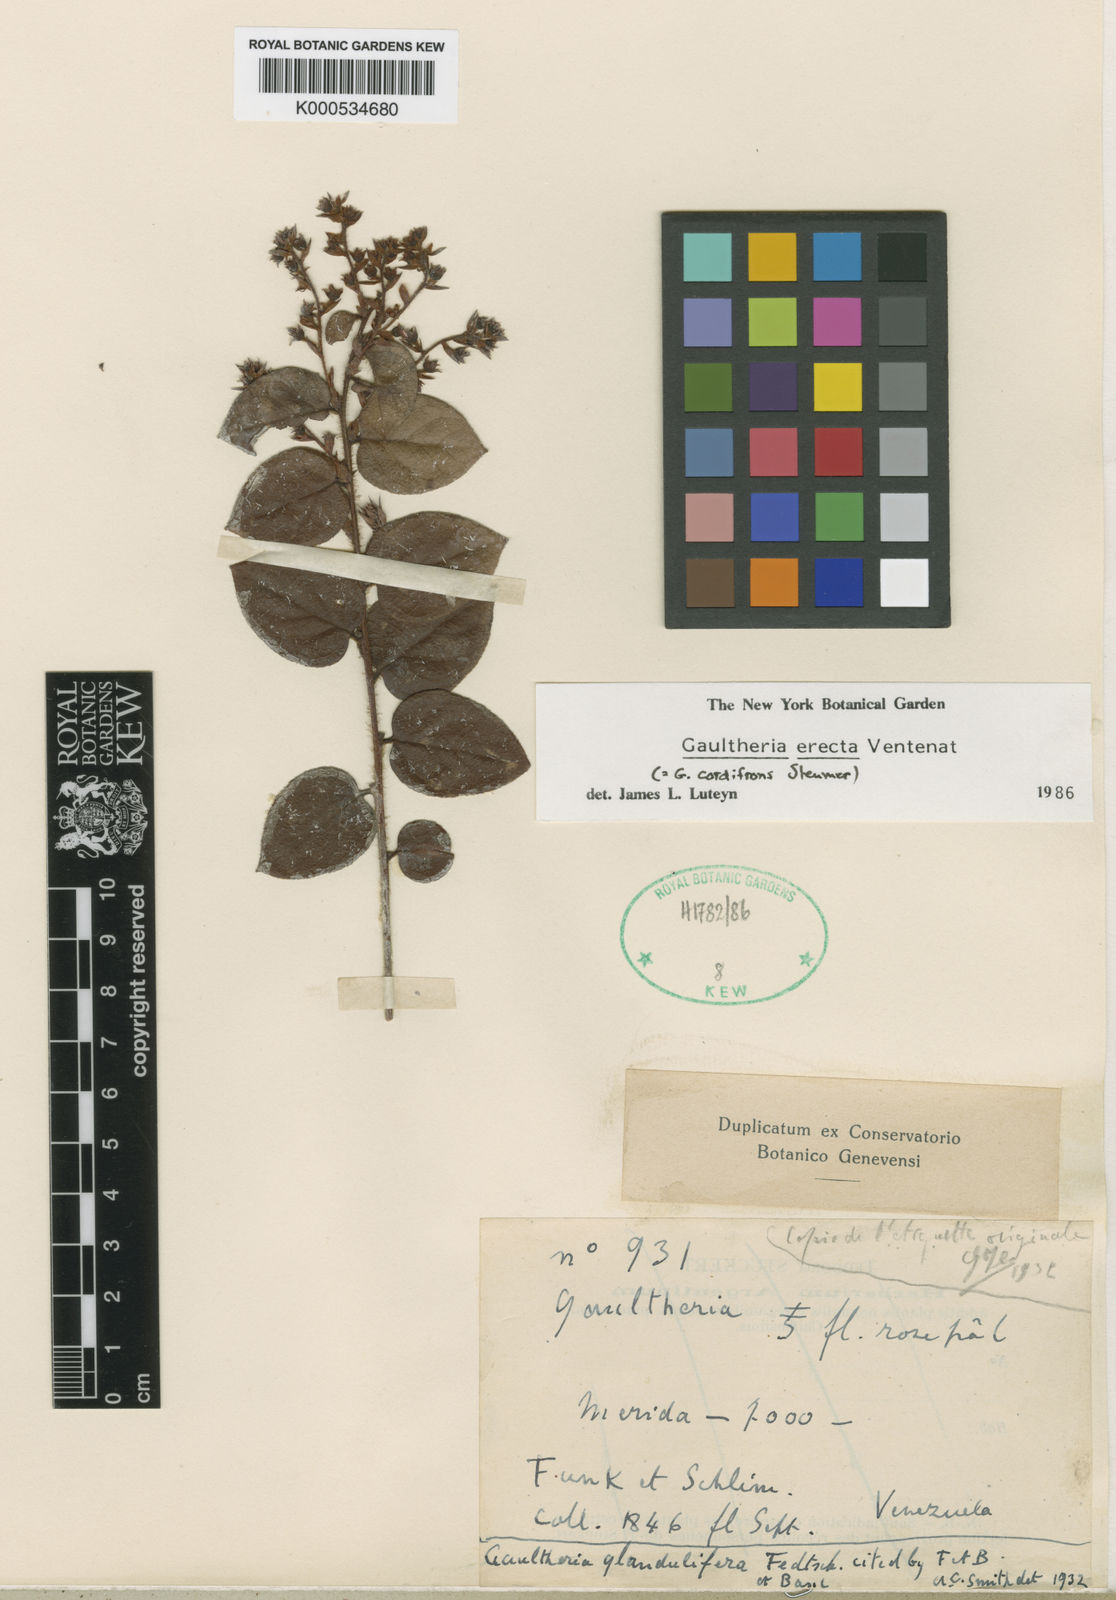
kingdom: Plantae
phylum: Tracheophyta
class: Magnoliopsida
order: Ericales
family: Ericaceae
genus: Gaultheria
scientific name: Gaultheria erecta
